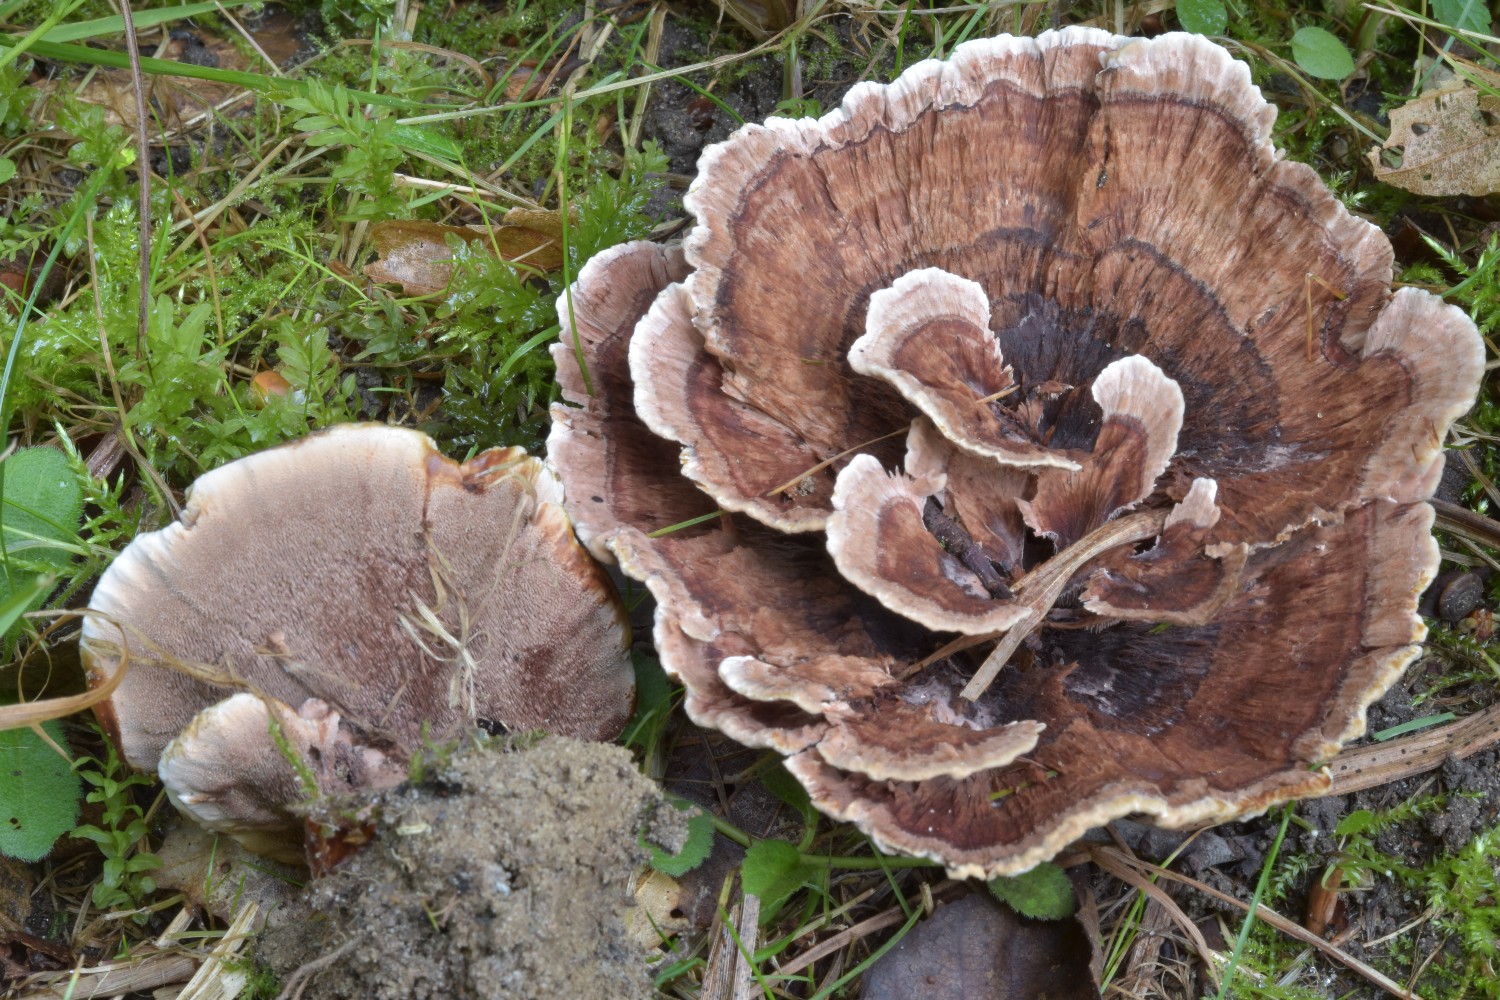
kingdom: Fungi
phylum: Basidiomycota
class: Agaricomycetes
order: Thelephorales
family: Bankeraceae
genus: Hydnellum
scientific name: Hydnellum concrescens
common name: bæltet korkpigsvamp
